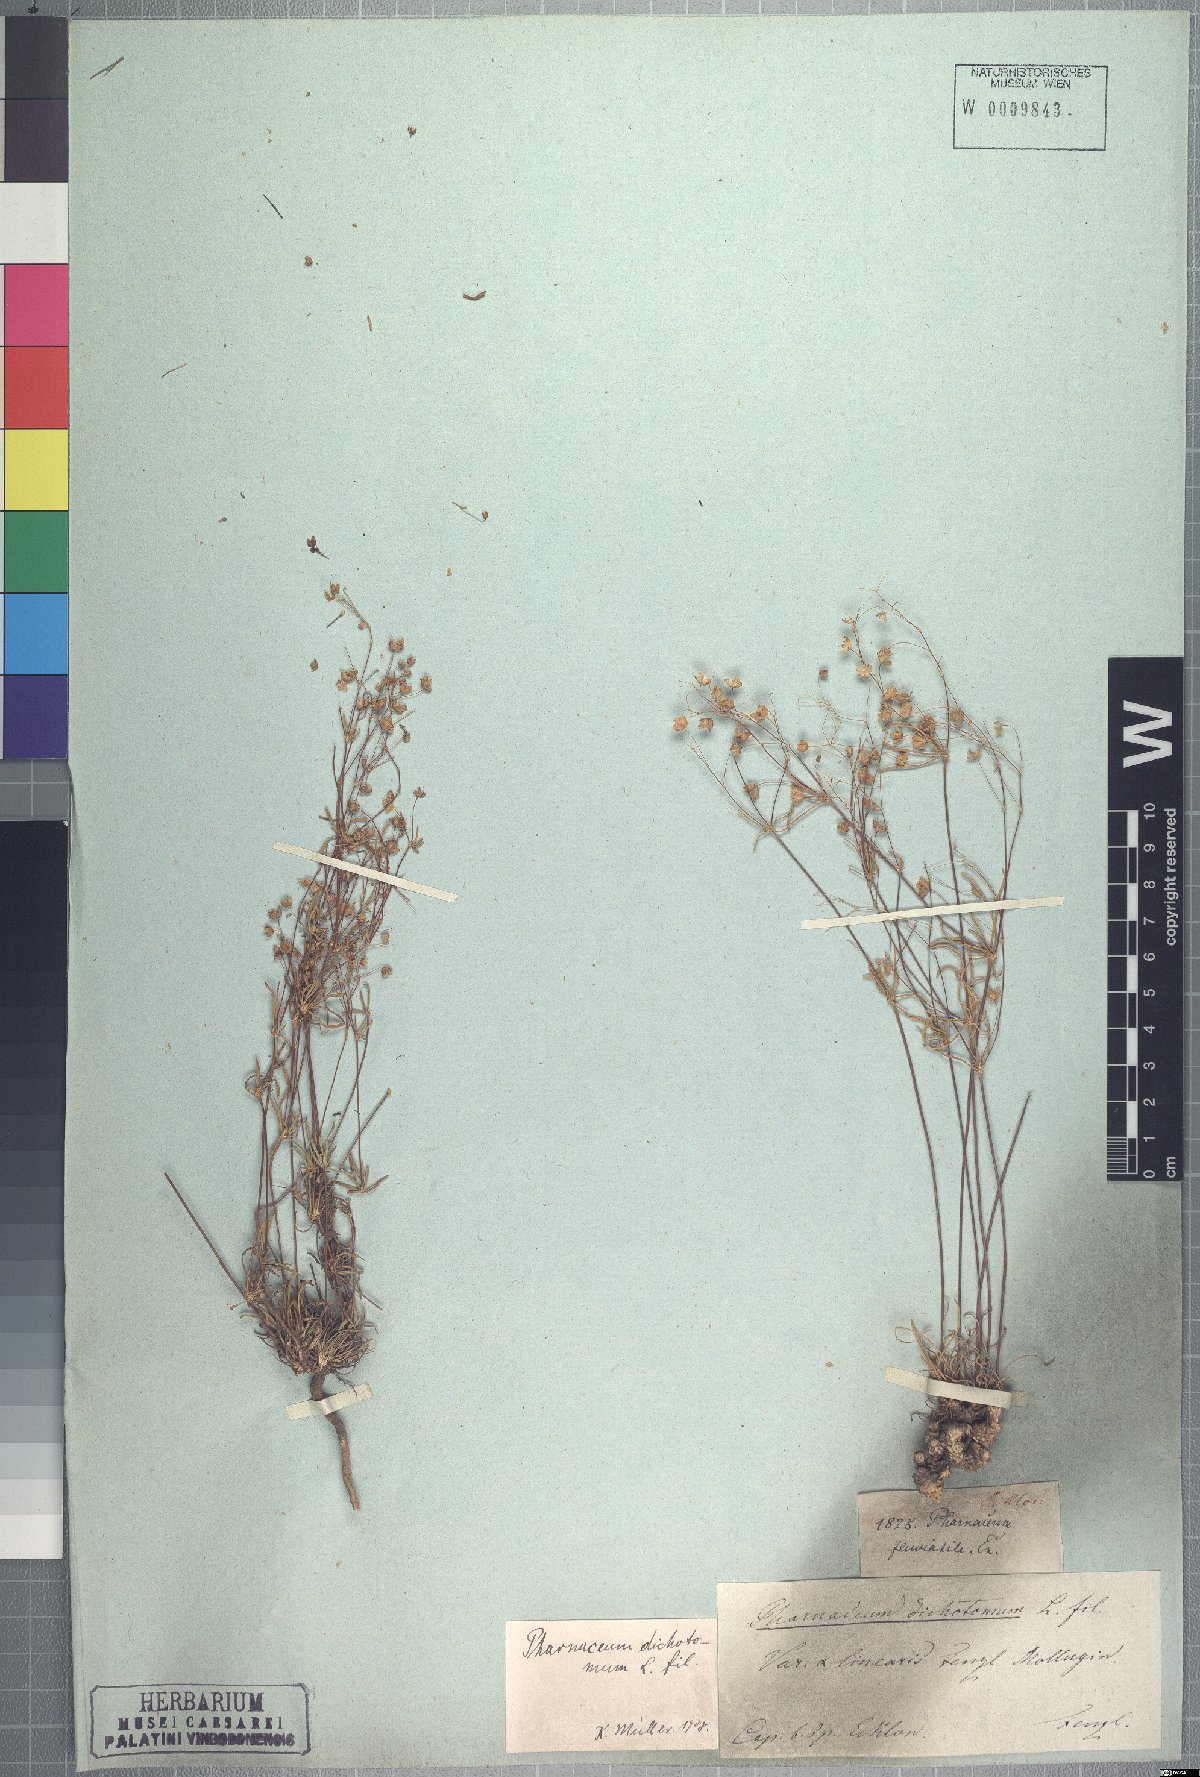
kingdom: Plantae
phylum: Tracheophyta
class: Magnoliopsida
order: Caryophyllales
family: Molluginaceae
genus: Pharnaceum
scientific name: Pharnaceum dichotomum
